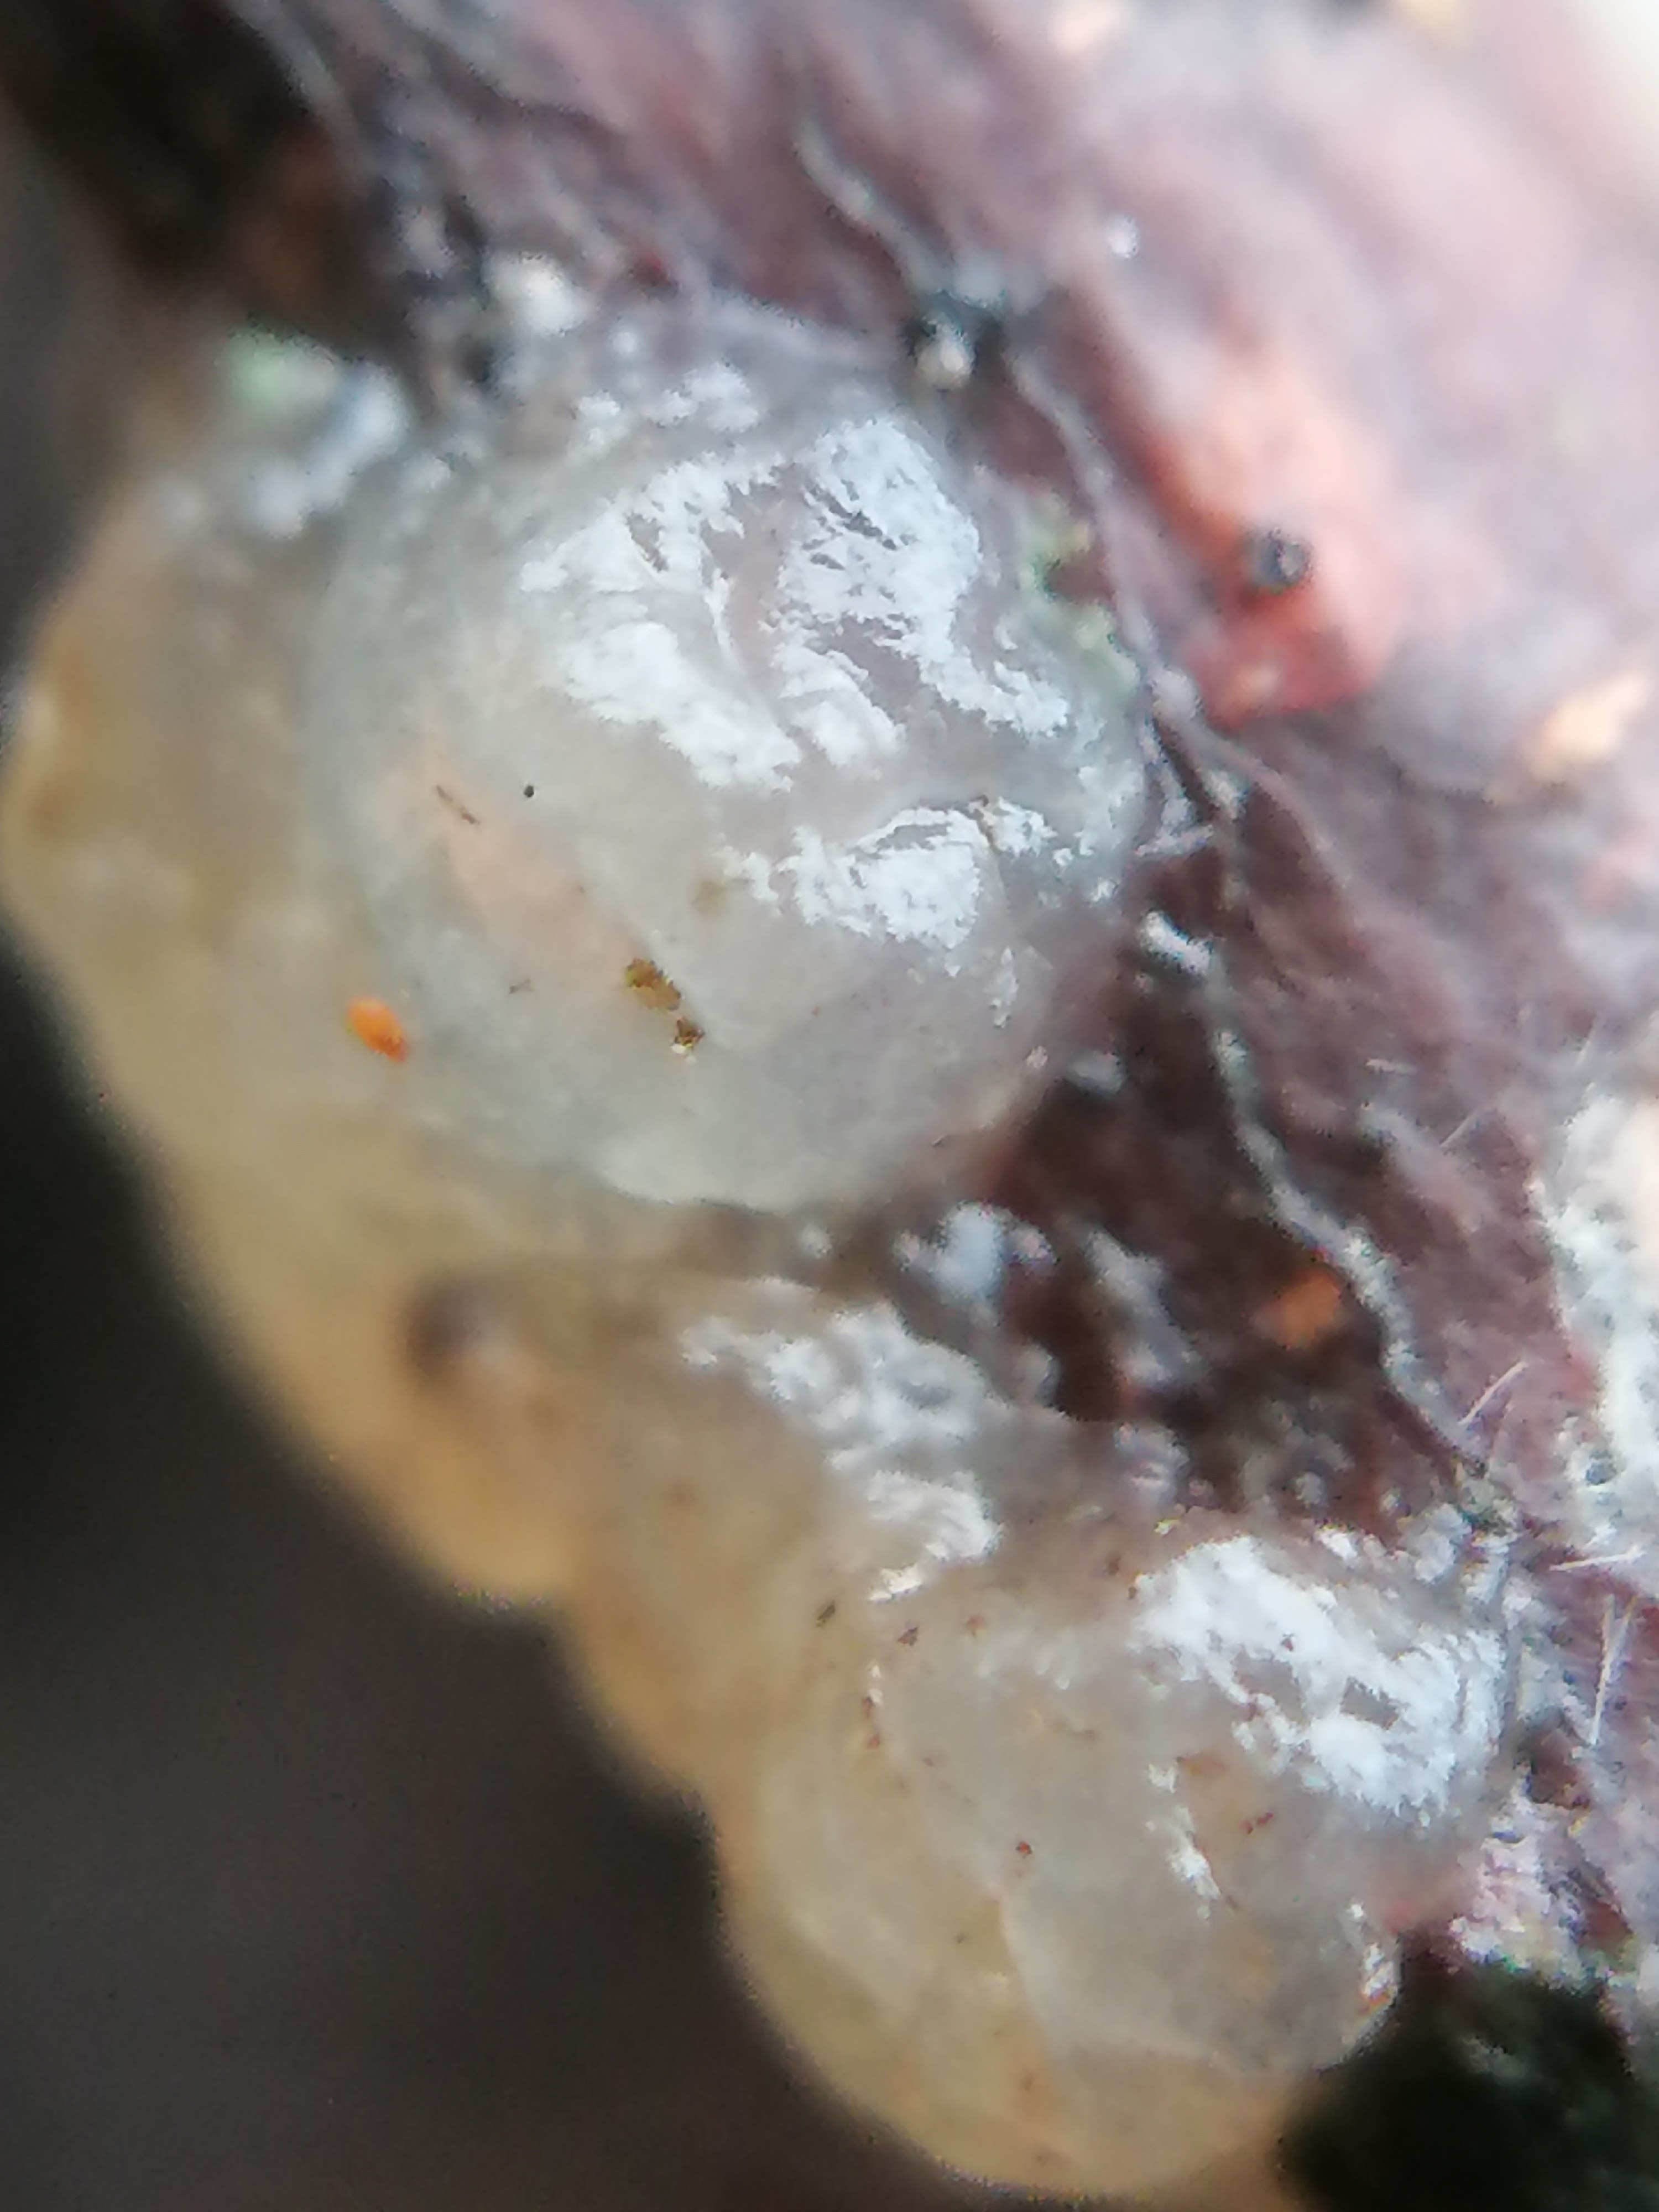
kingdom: Fungi
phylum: Basidiomycota
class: Agaricomycetes
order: Auriculariales
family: Hyaloriaceae
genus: Myxarium
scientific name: Myxarium nucleatum
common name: klar bævretop
